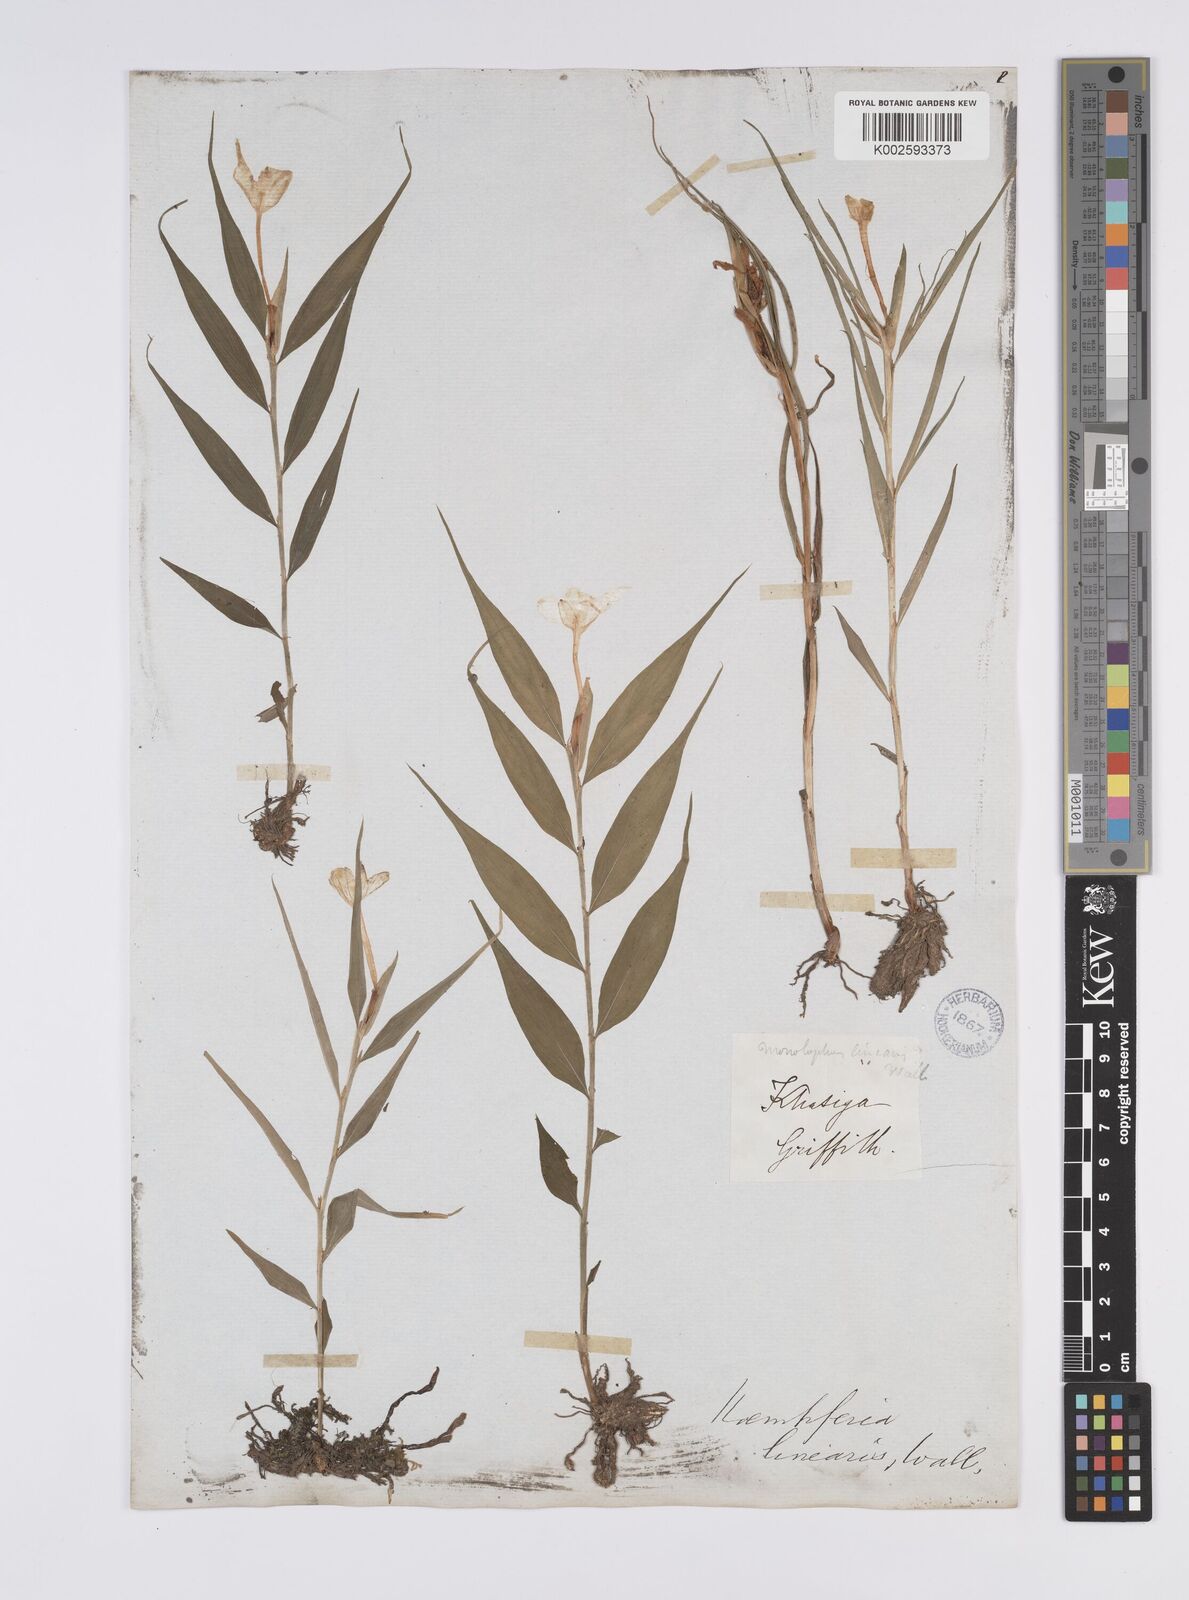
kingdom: Plantae
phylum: Tracheophyta
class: Liliopsida
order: Zingiberales
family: Zingiberaceae
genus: Caulokaempferia
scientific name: Caulokaempferia linearis
